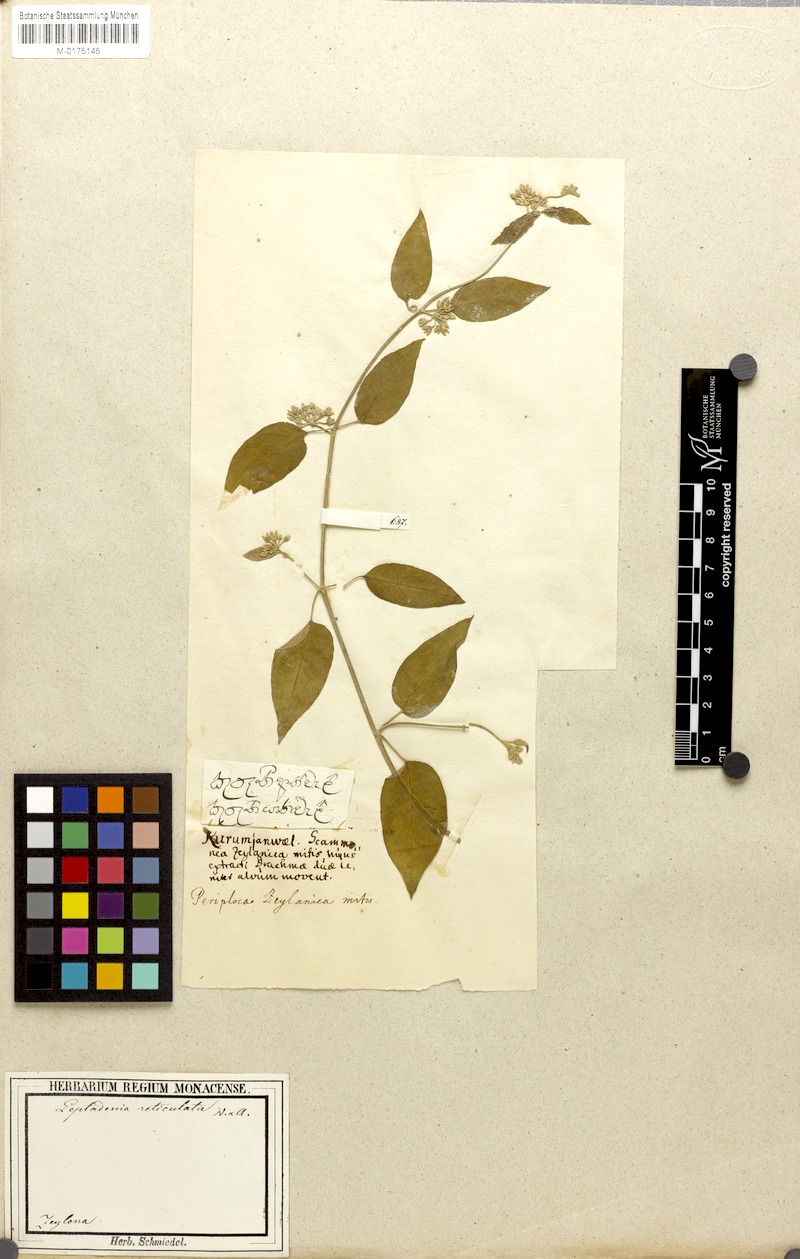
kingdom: Plantae
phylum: Tracheophyta
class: Magnoliopsida
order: Gentianales
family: Apocynaceae
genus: Leptadenia
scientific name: Leptadenia reticulata
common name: Leptadenia
